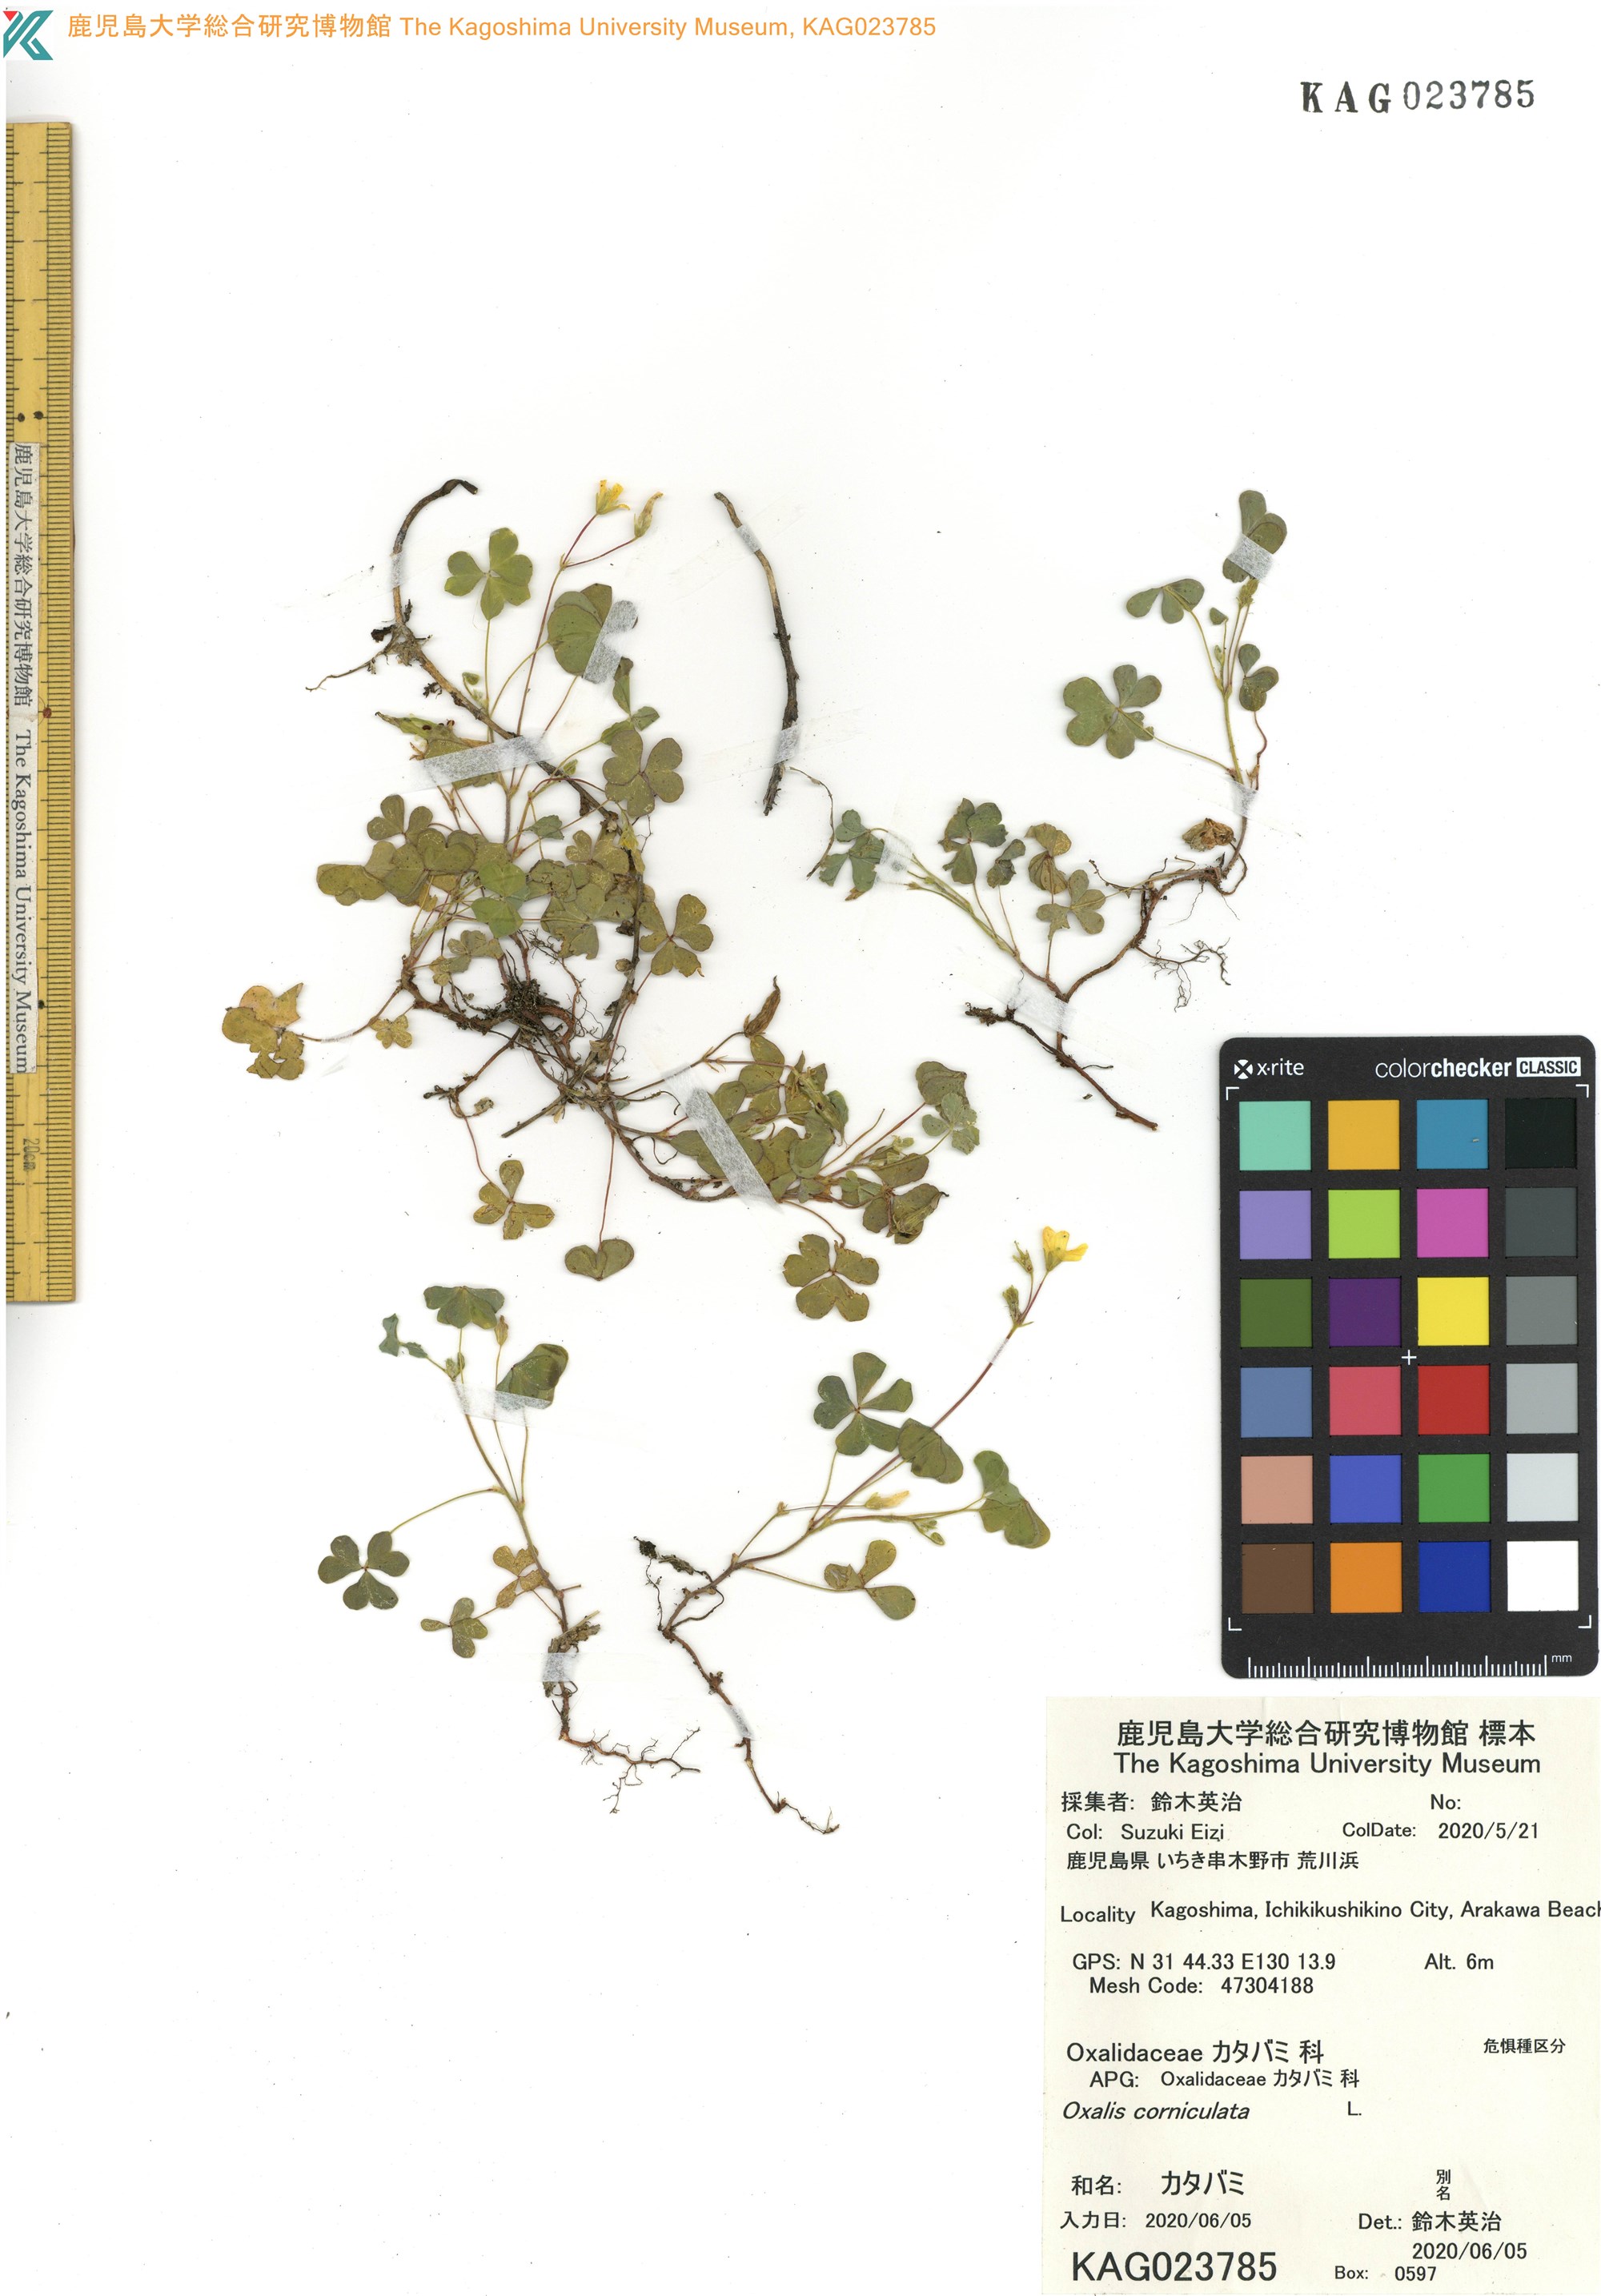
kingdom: Plantae
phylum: Tracheophyta
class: Magnoliopsida
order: Oxalidales
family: Oxalidaceae
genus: Oxalis
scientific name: Oxalis corniculata
